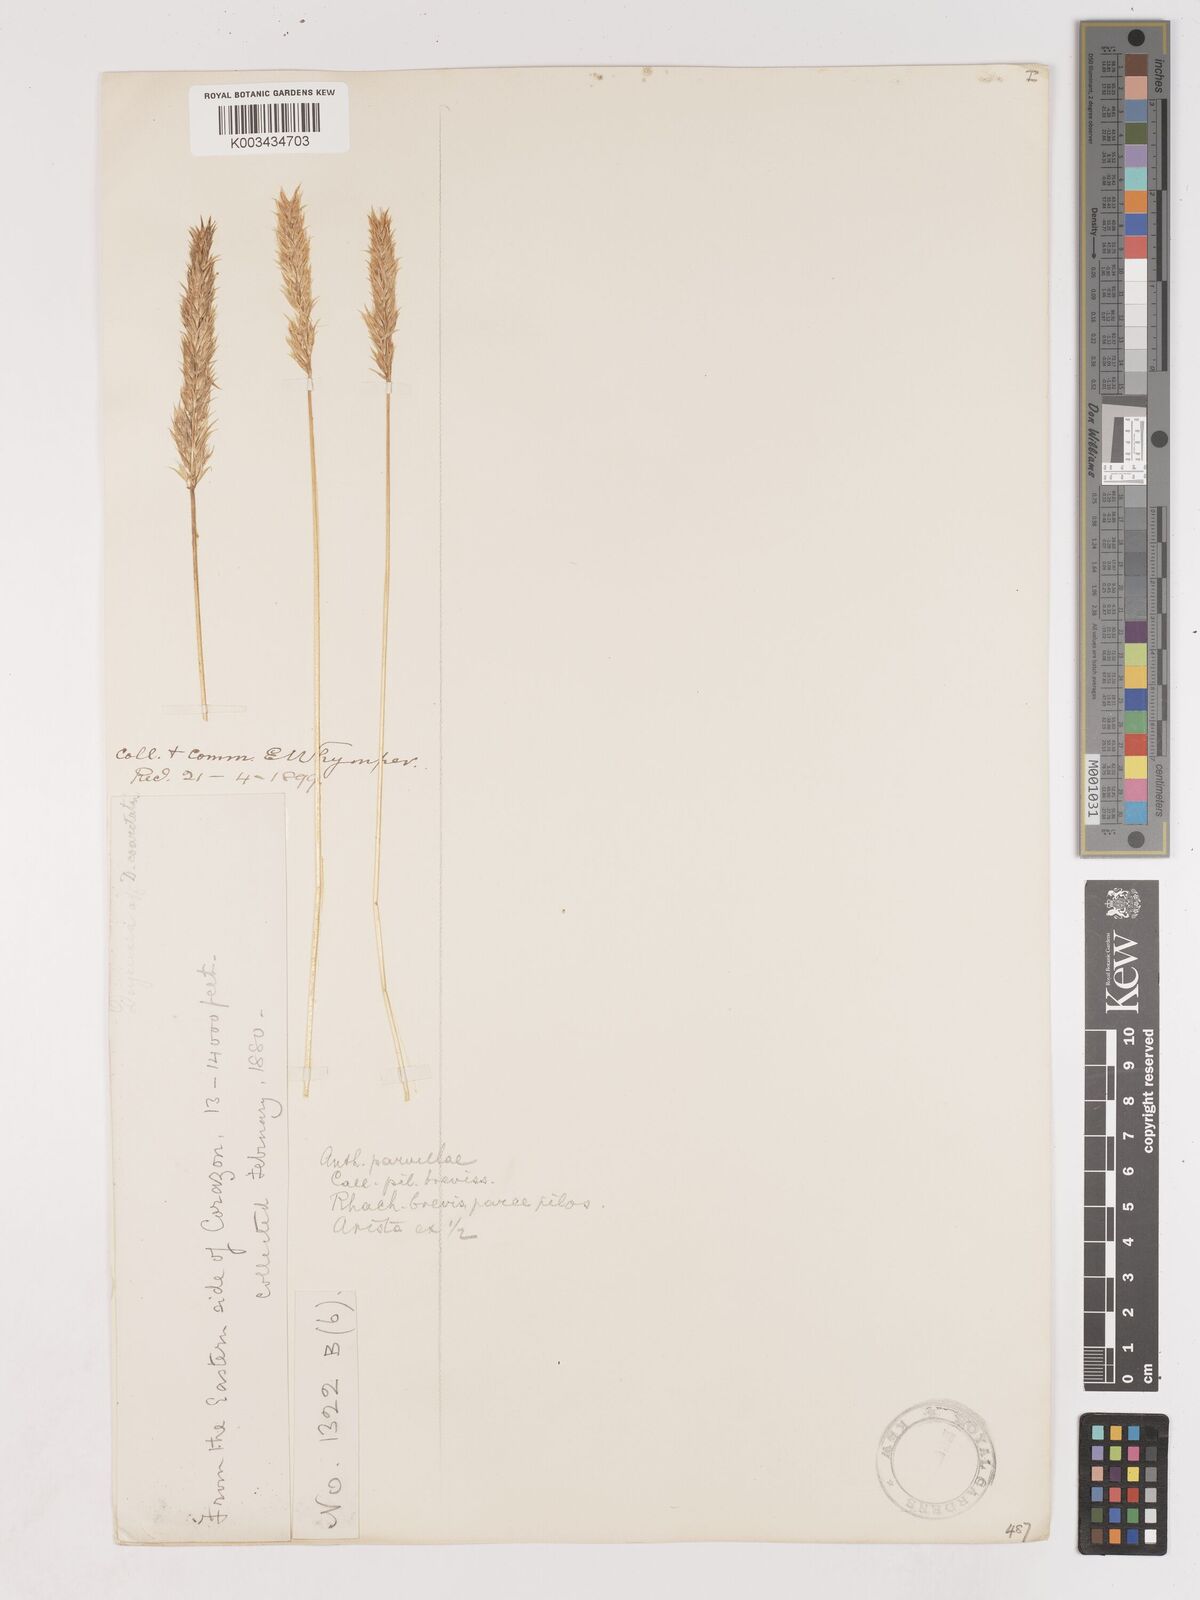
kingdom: Plantae
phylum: Tracheophyta
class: Liliopsida
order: Poales
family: Poaceae
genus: Cinnagrostis
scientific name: Cinnagrostis vicunarum
